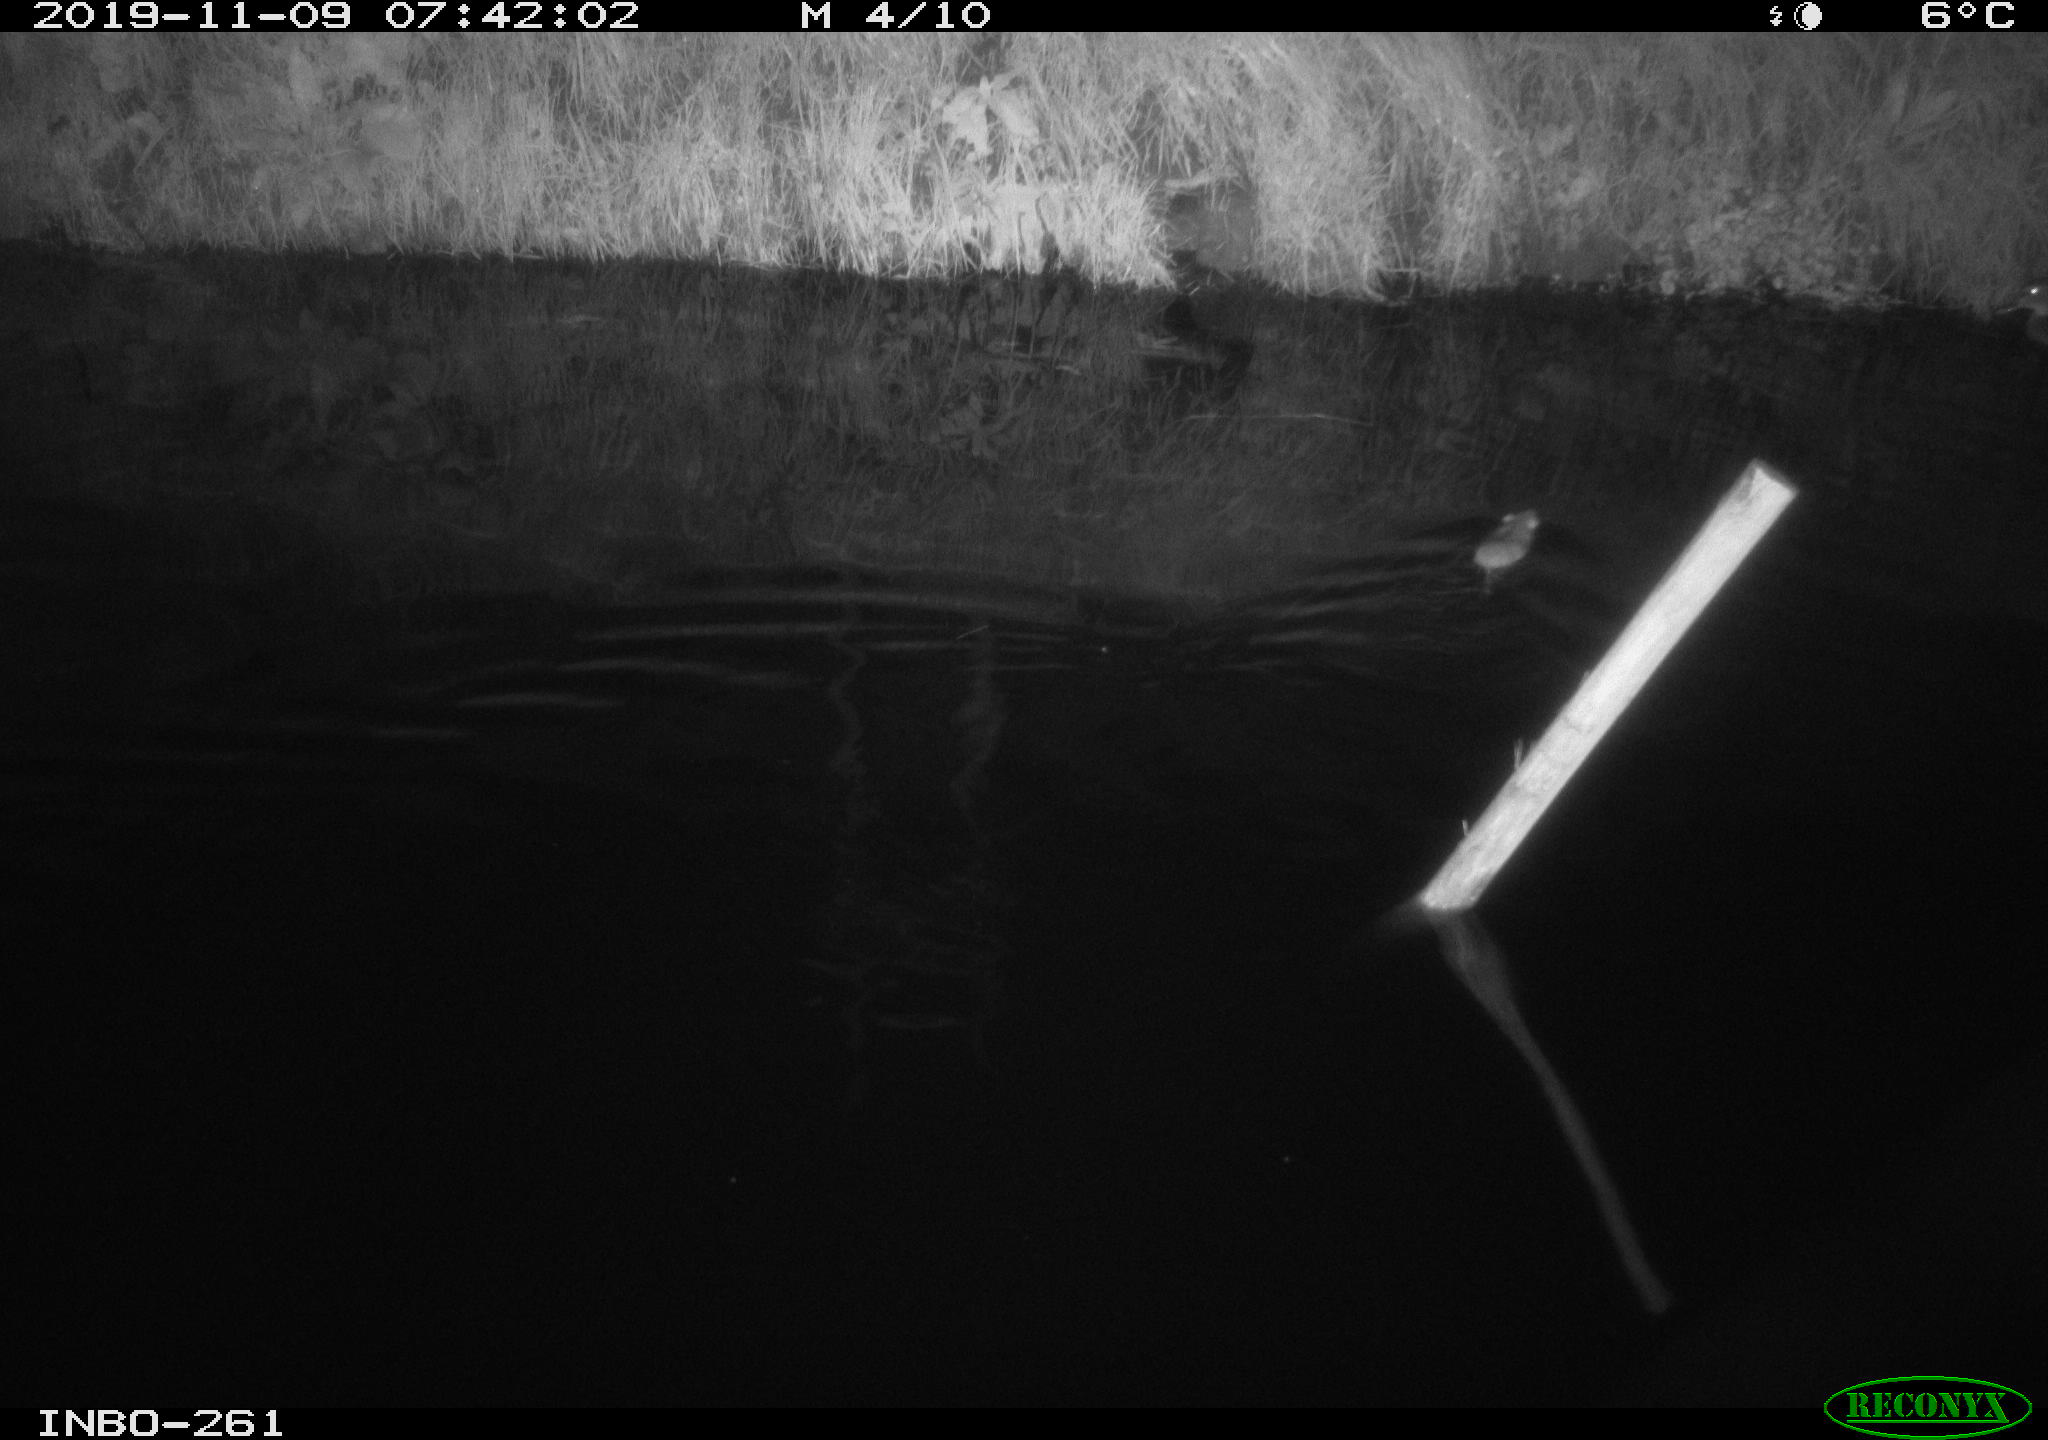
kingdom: Animalia
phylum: Chordata
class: Mammalia
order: Rodentia
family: Muridae
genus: Rattus
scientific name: Rattus norvegicus
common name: Brown rat
